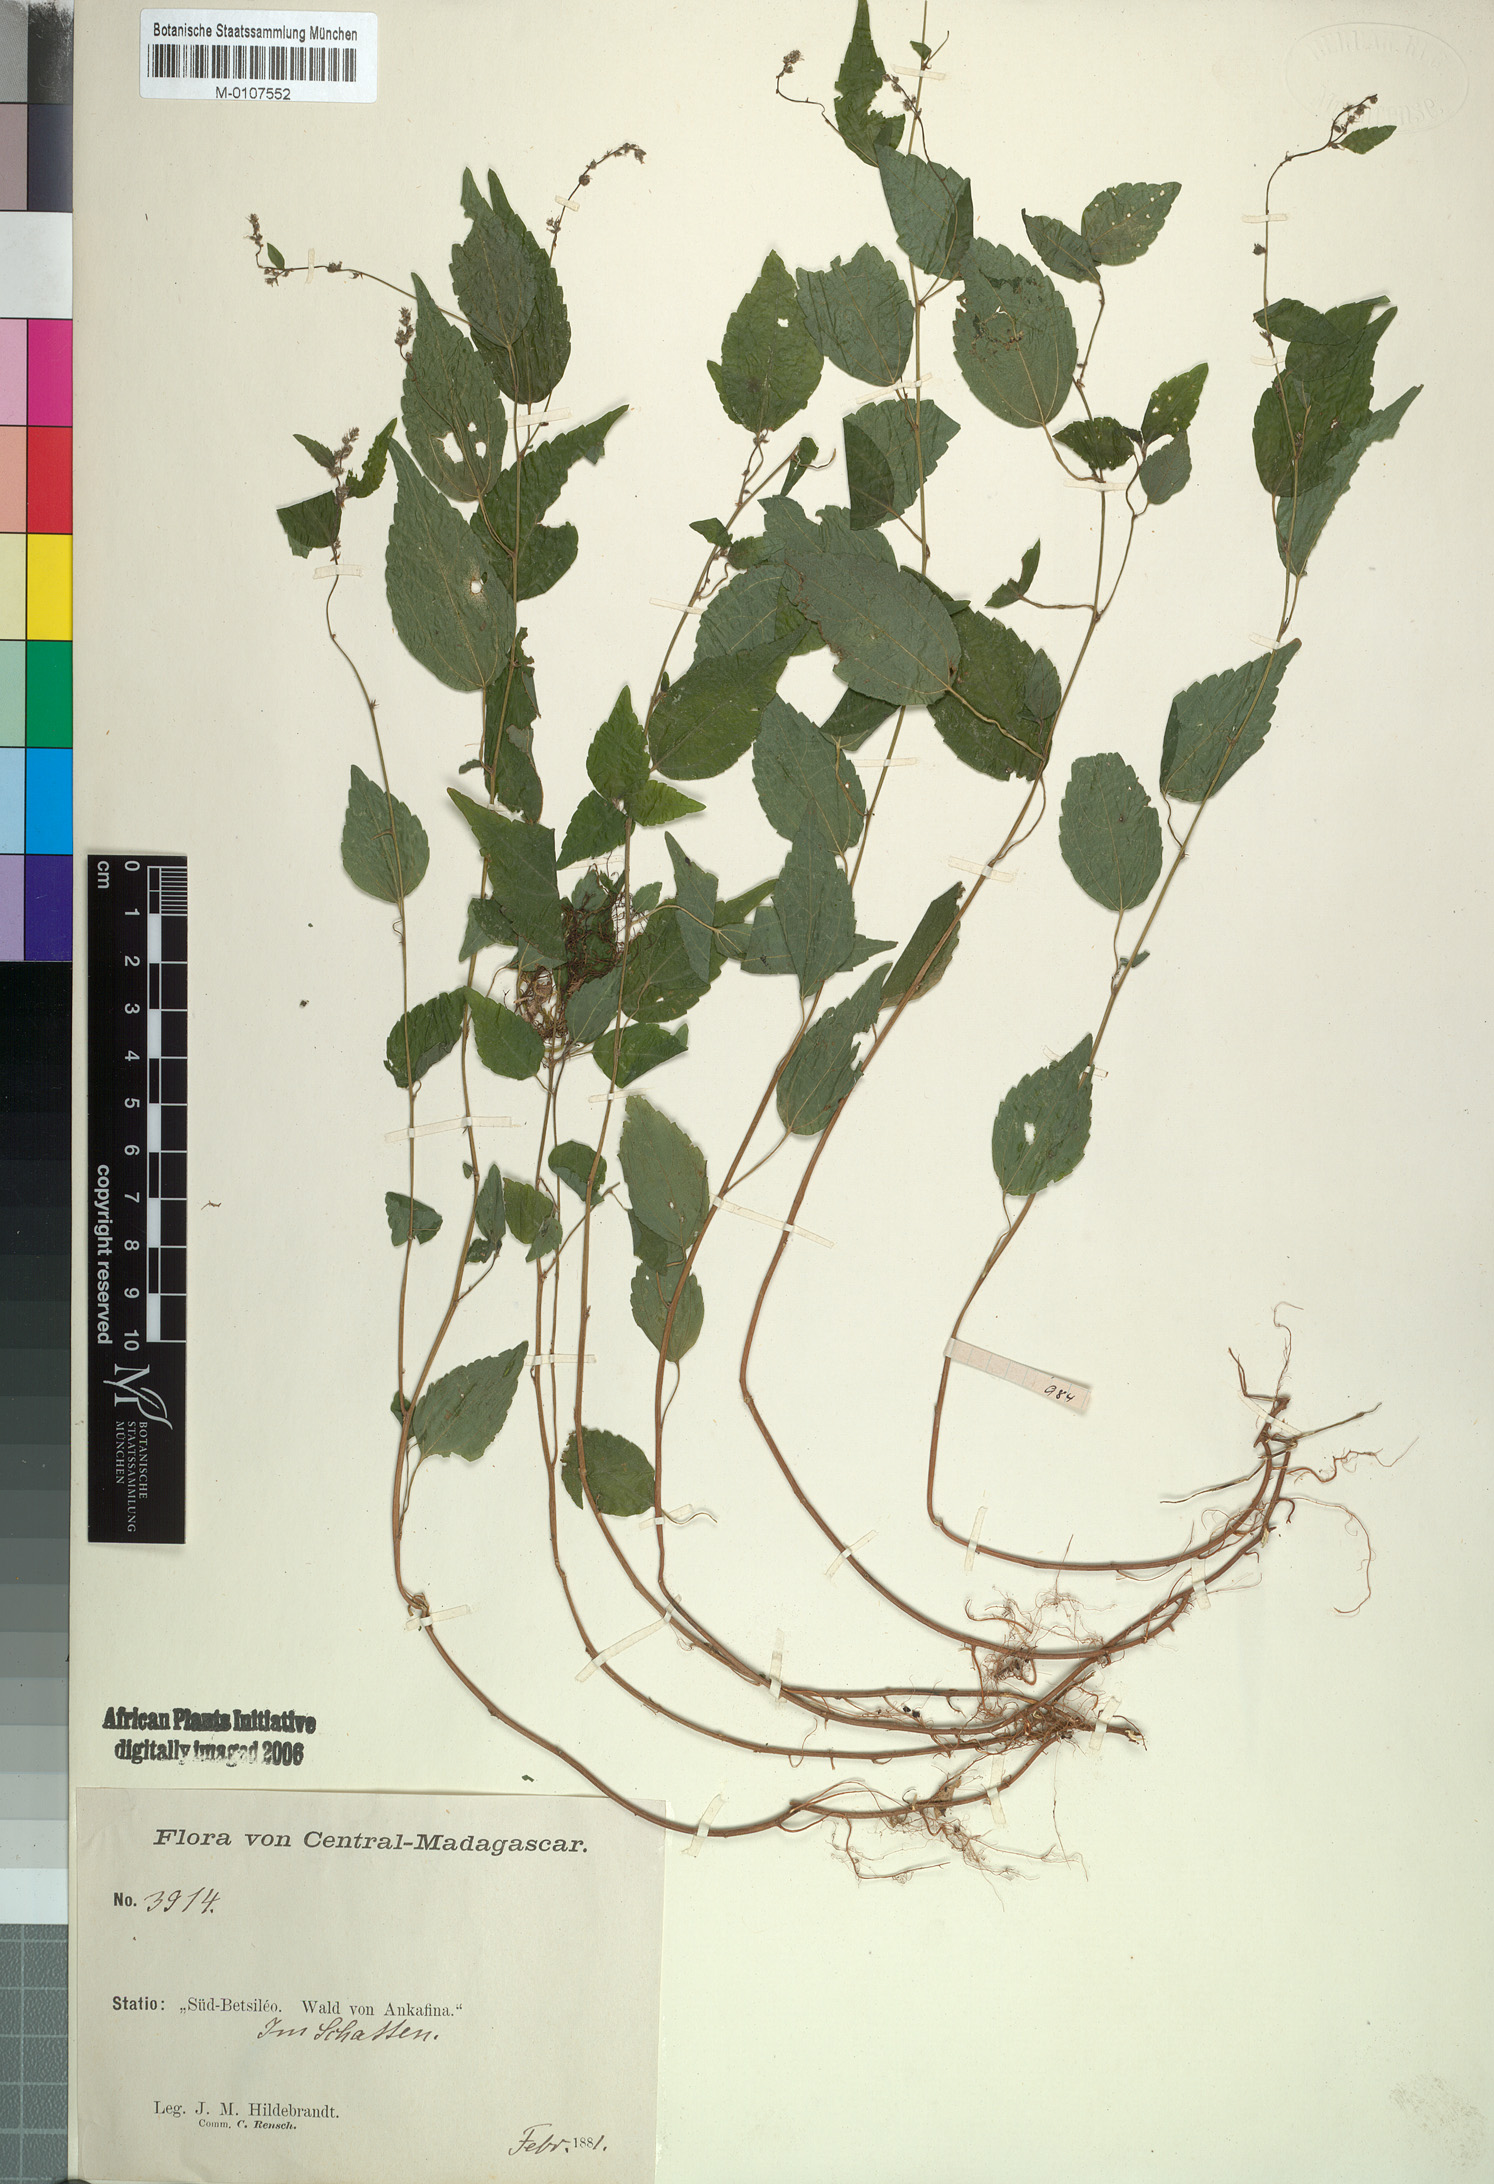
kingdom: Plantae
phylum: Tracheophyta
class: Magnoliopsida
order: Rosales
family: Urticaceae
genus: Droguetia
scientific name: Droguetia hildebrandtii
